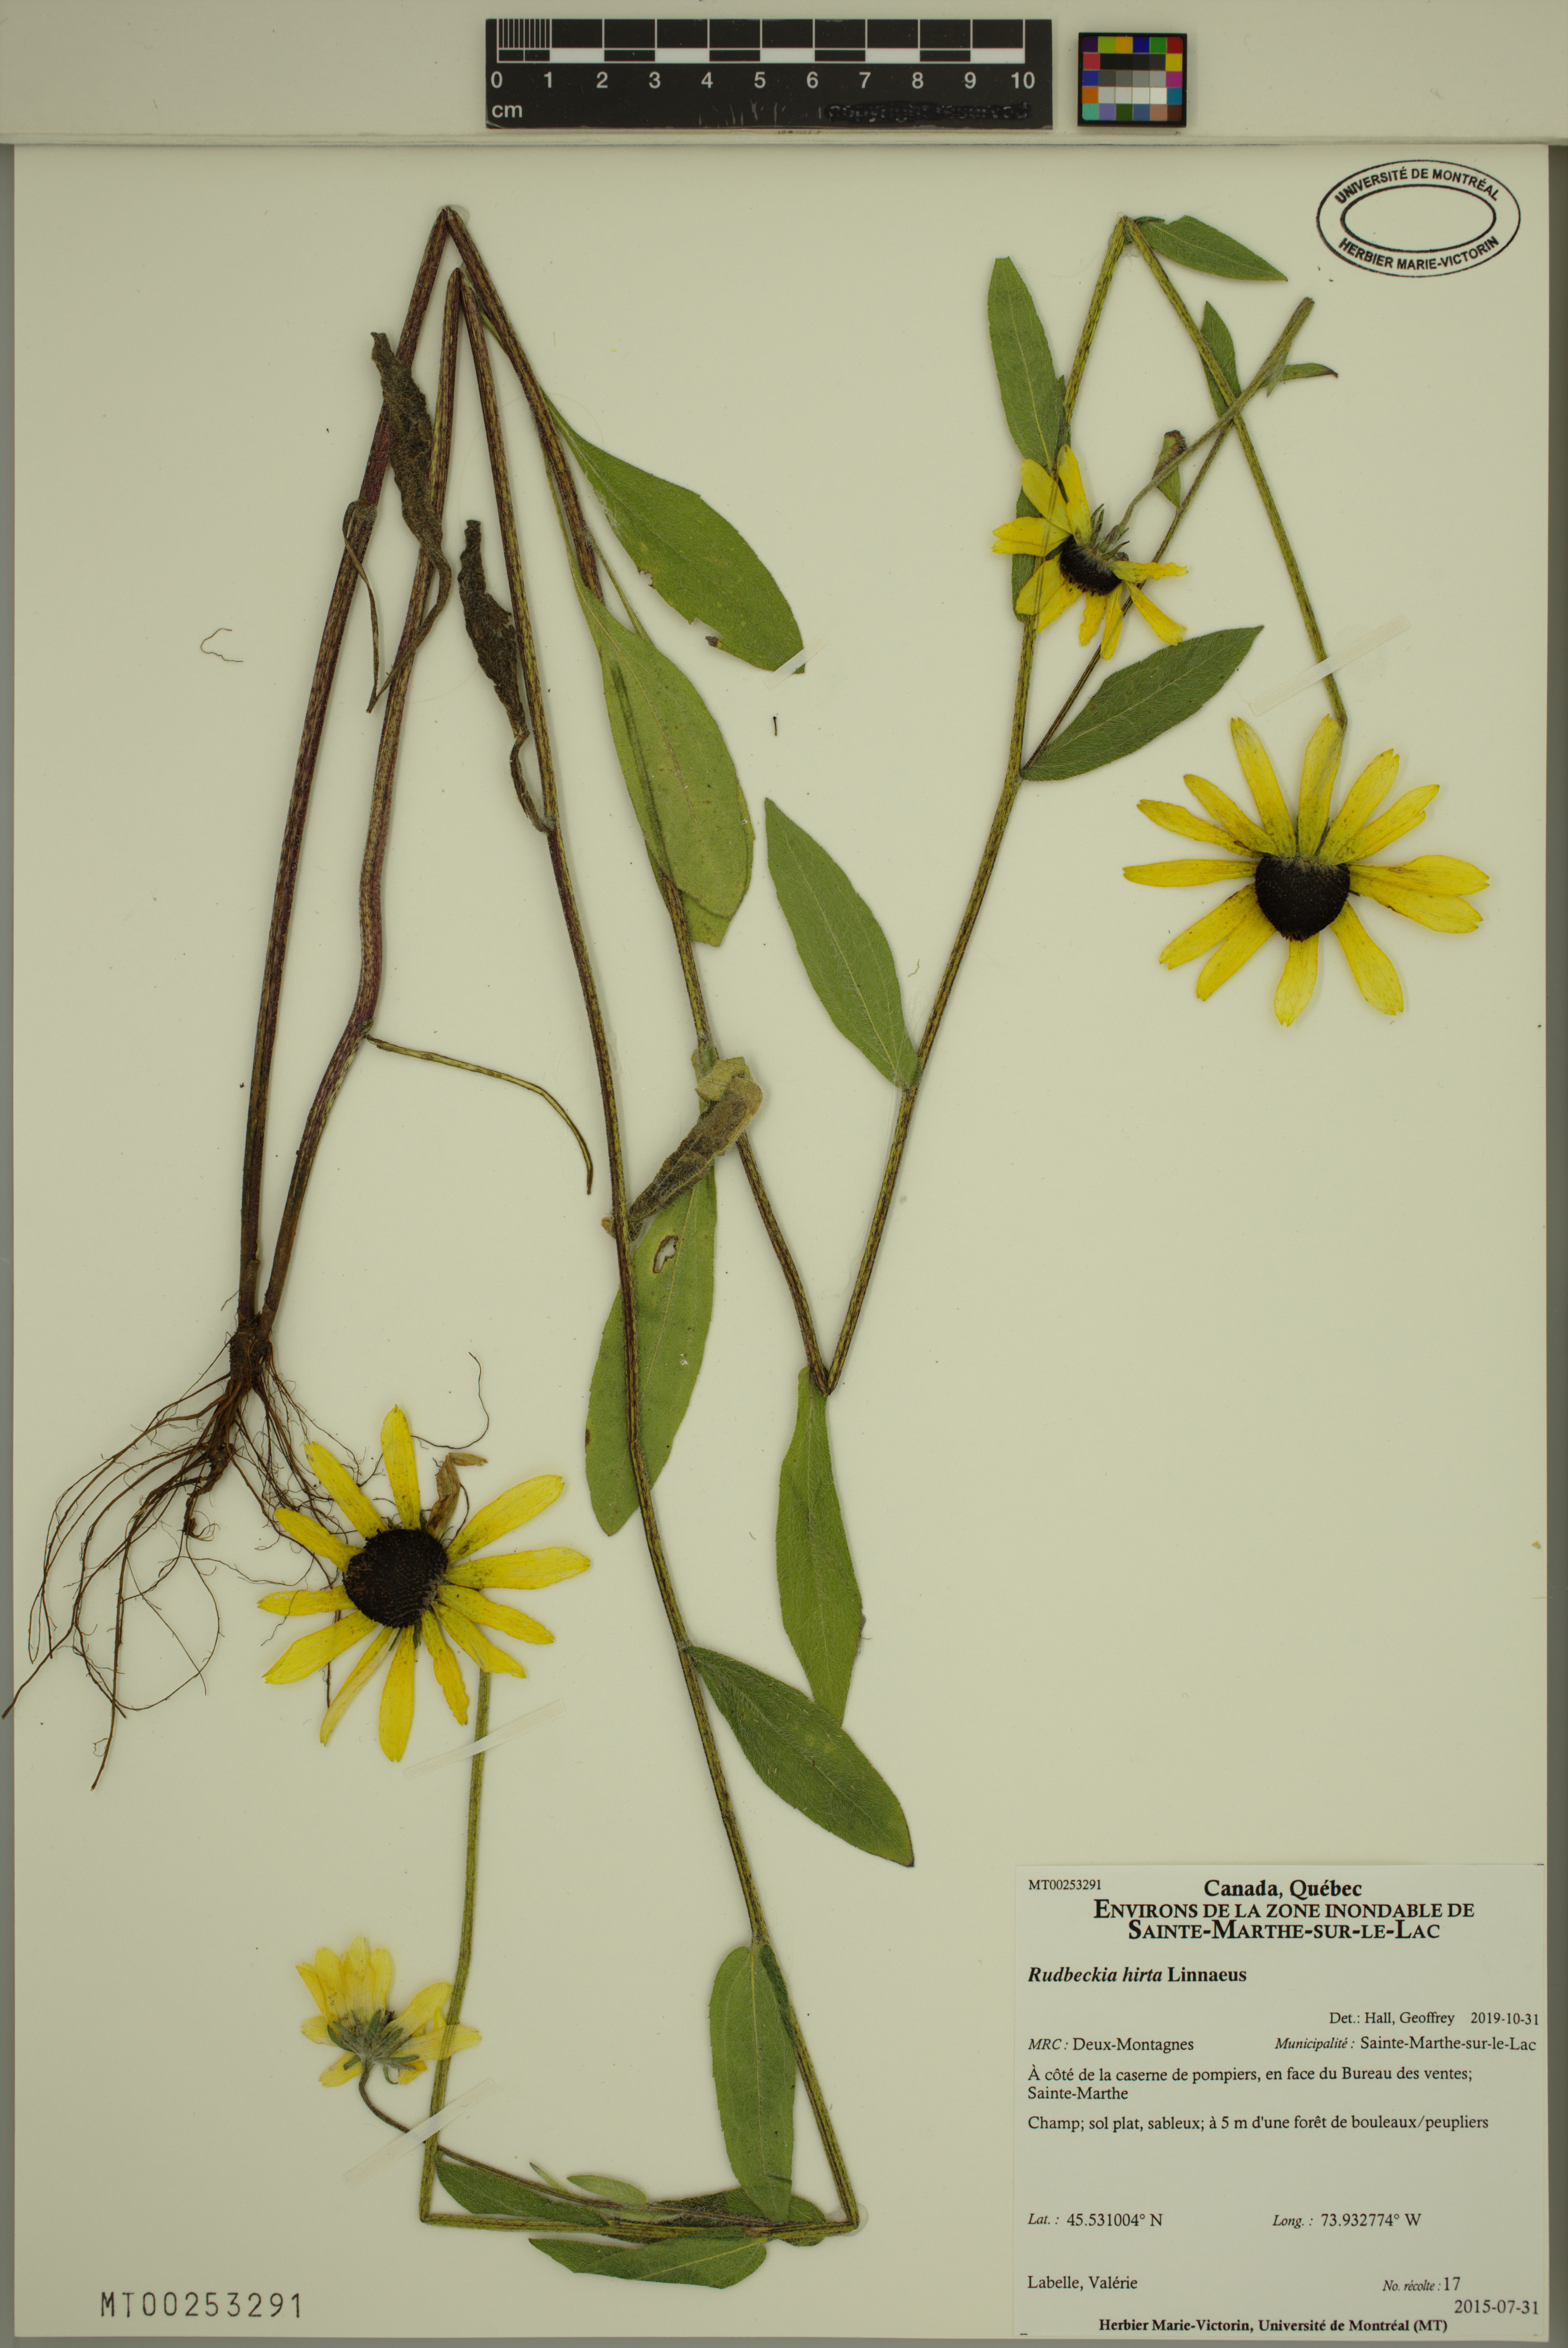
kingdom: Plantae
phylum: Tracheophyta
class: Magnoliopsida
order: Asterales
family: Asteraceae
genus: Rudbeckia
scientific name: Rudbeckia hirta
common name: Black-eyed-susan
